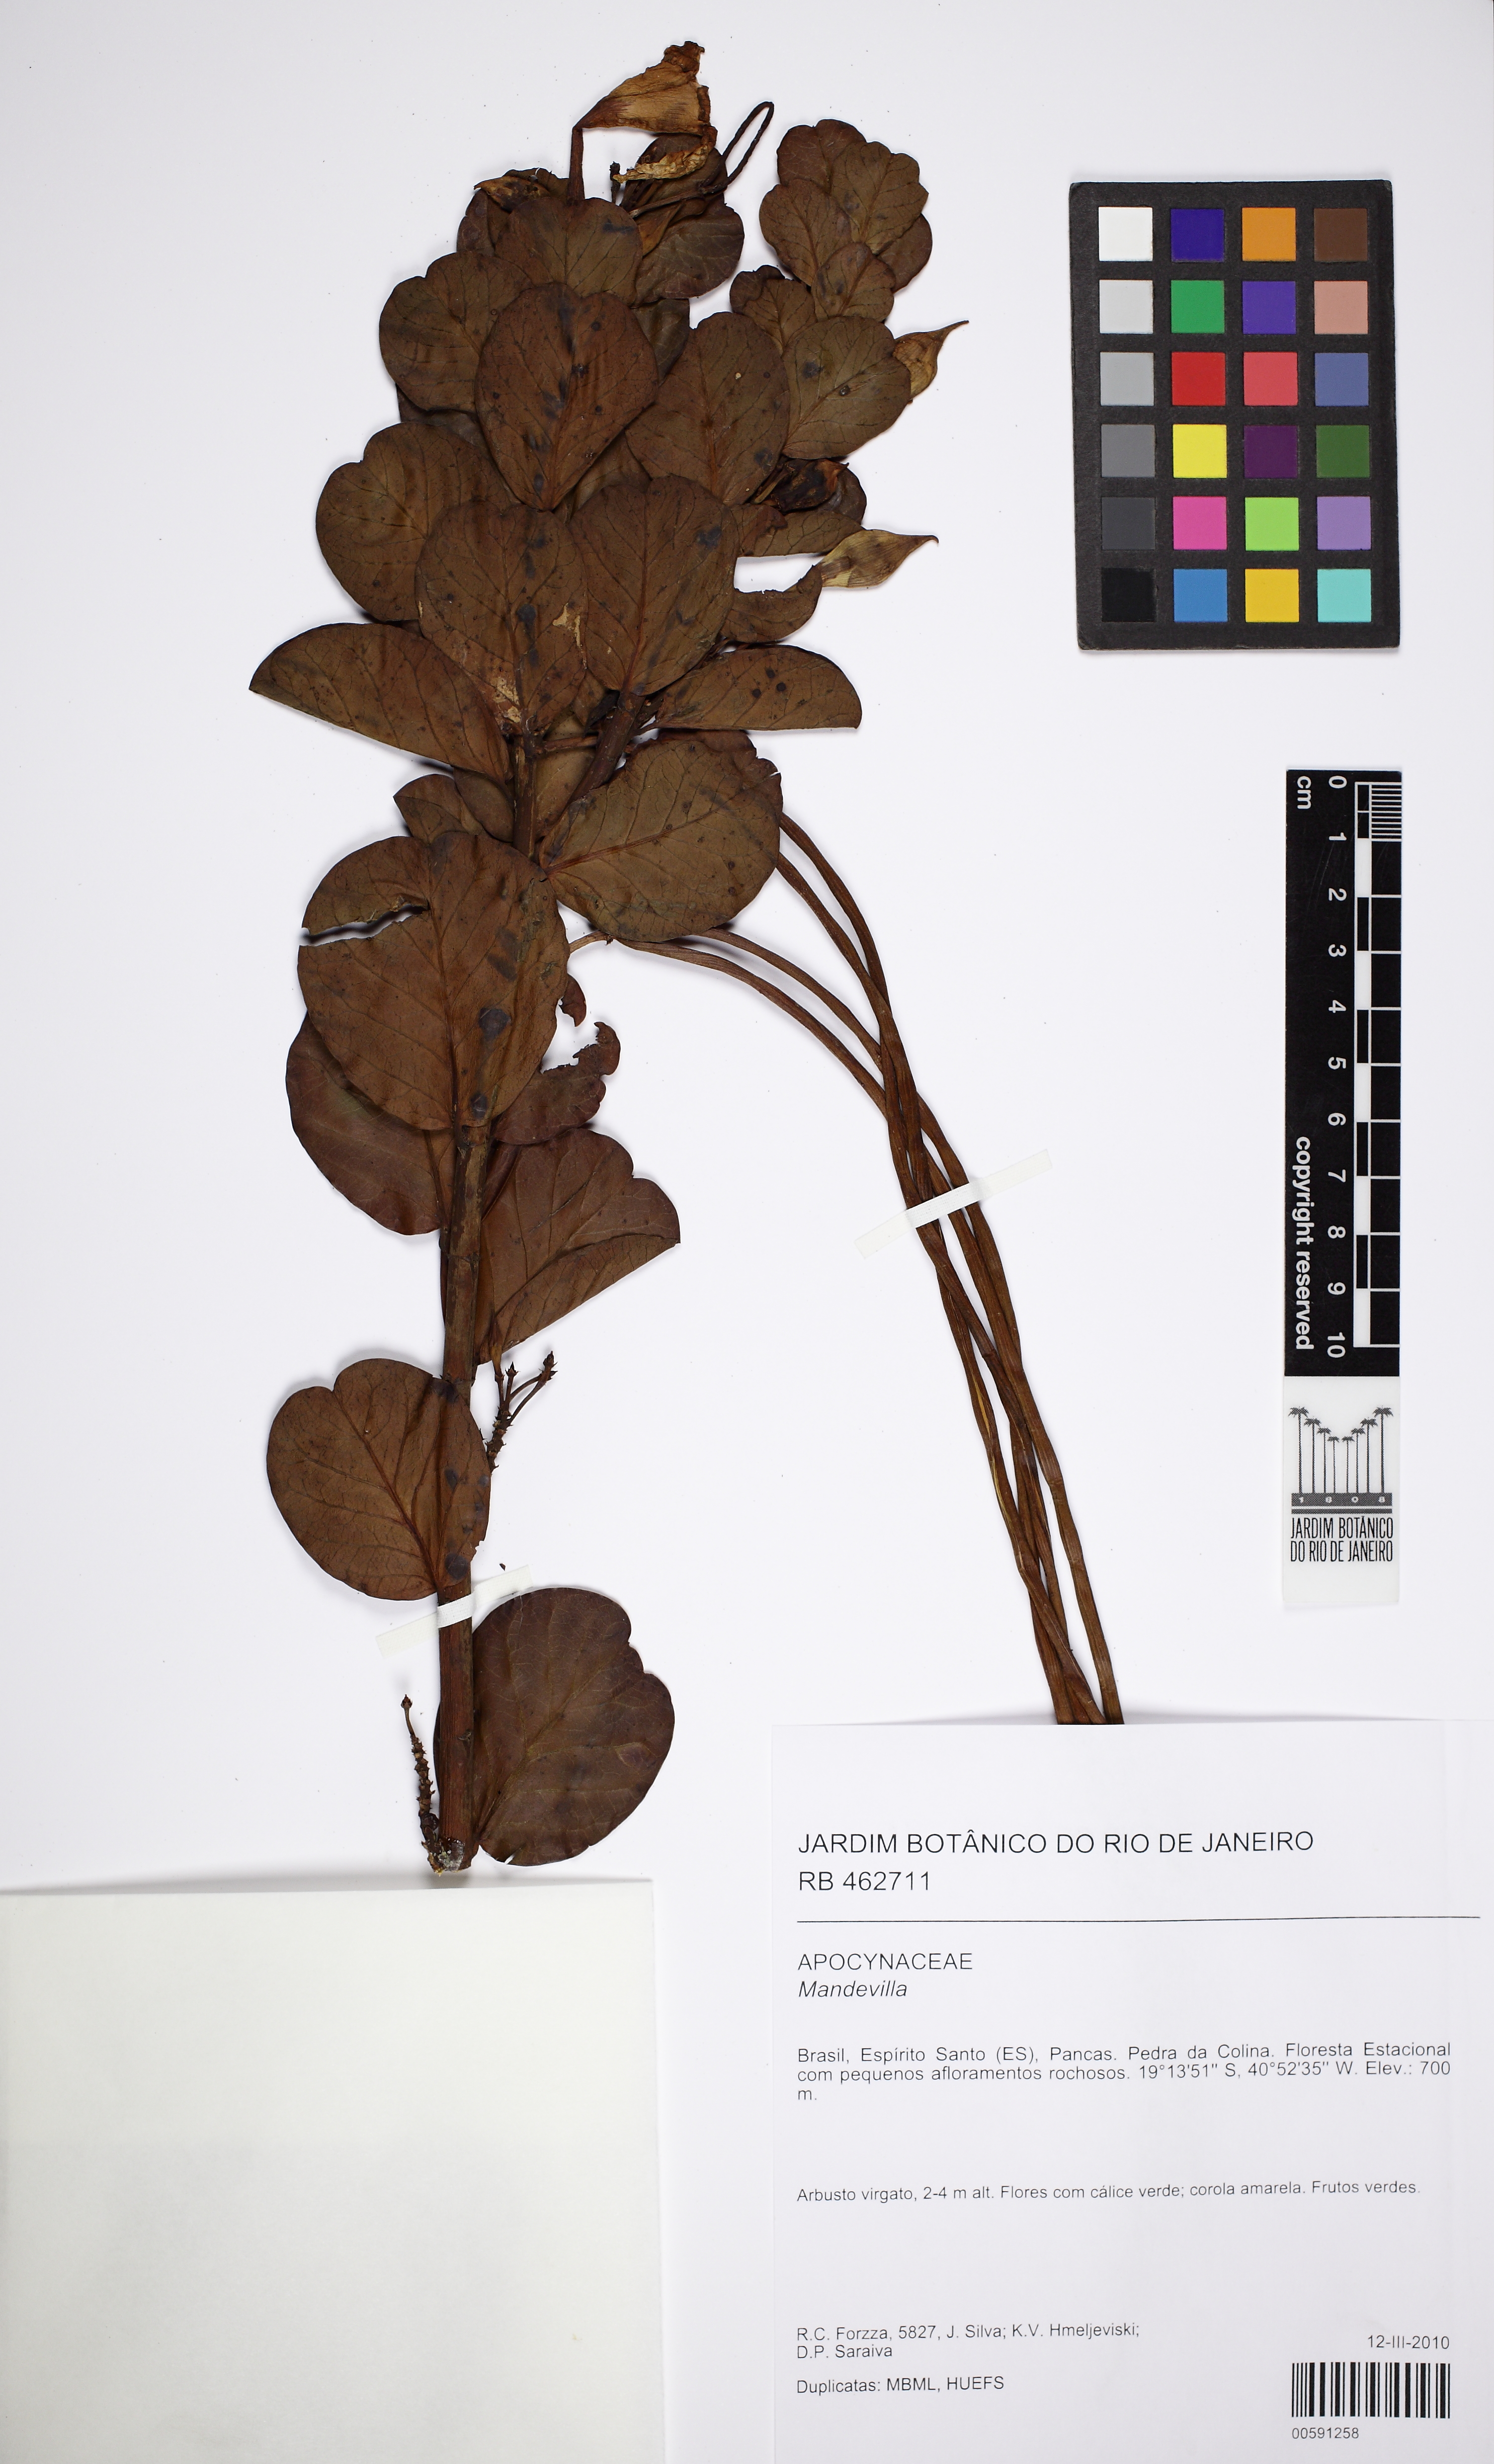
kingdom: Plantae
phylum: Tracheophyta
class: Magnoliopsida
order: Gentianales
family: Apocynaceae
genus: Mandevilla
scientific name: Mandevilla
